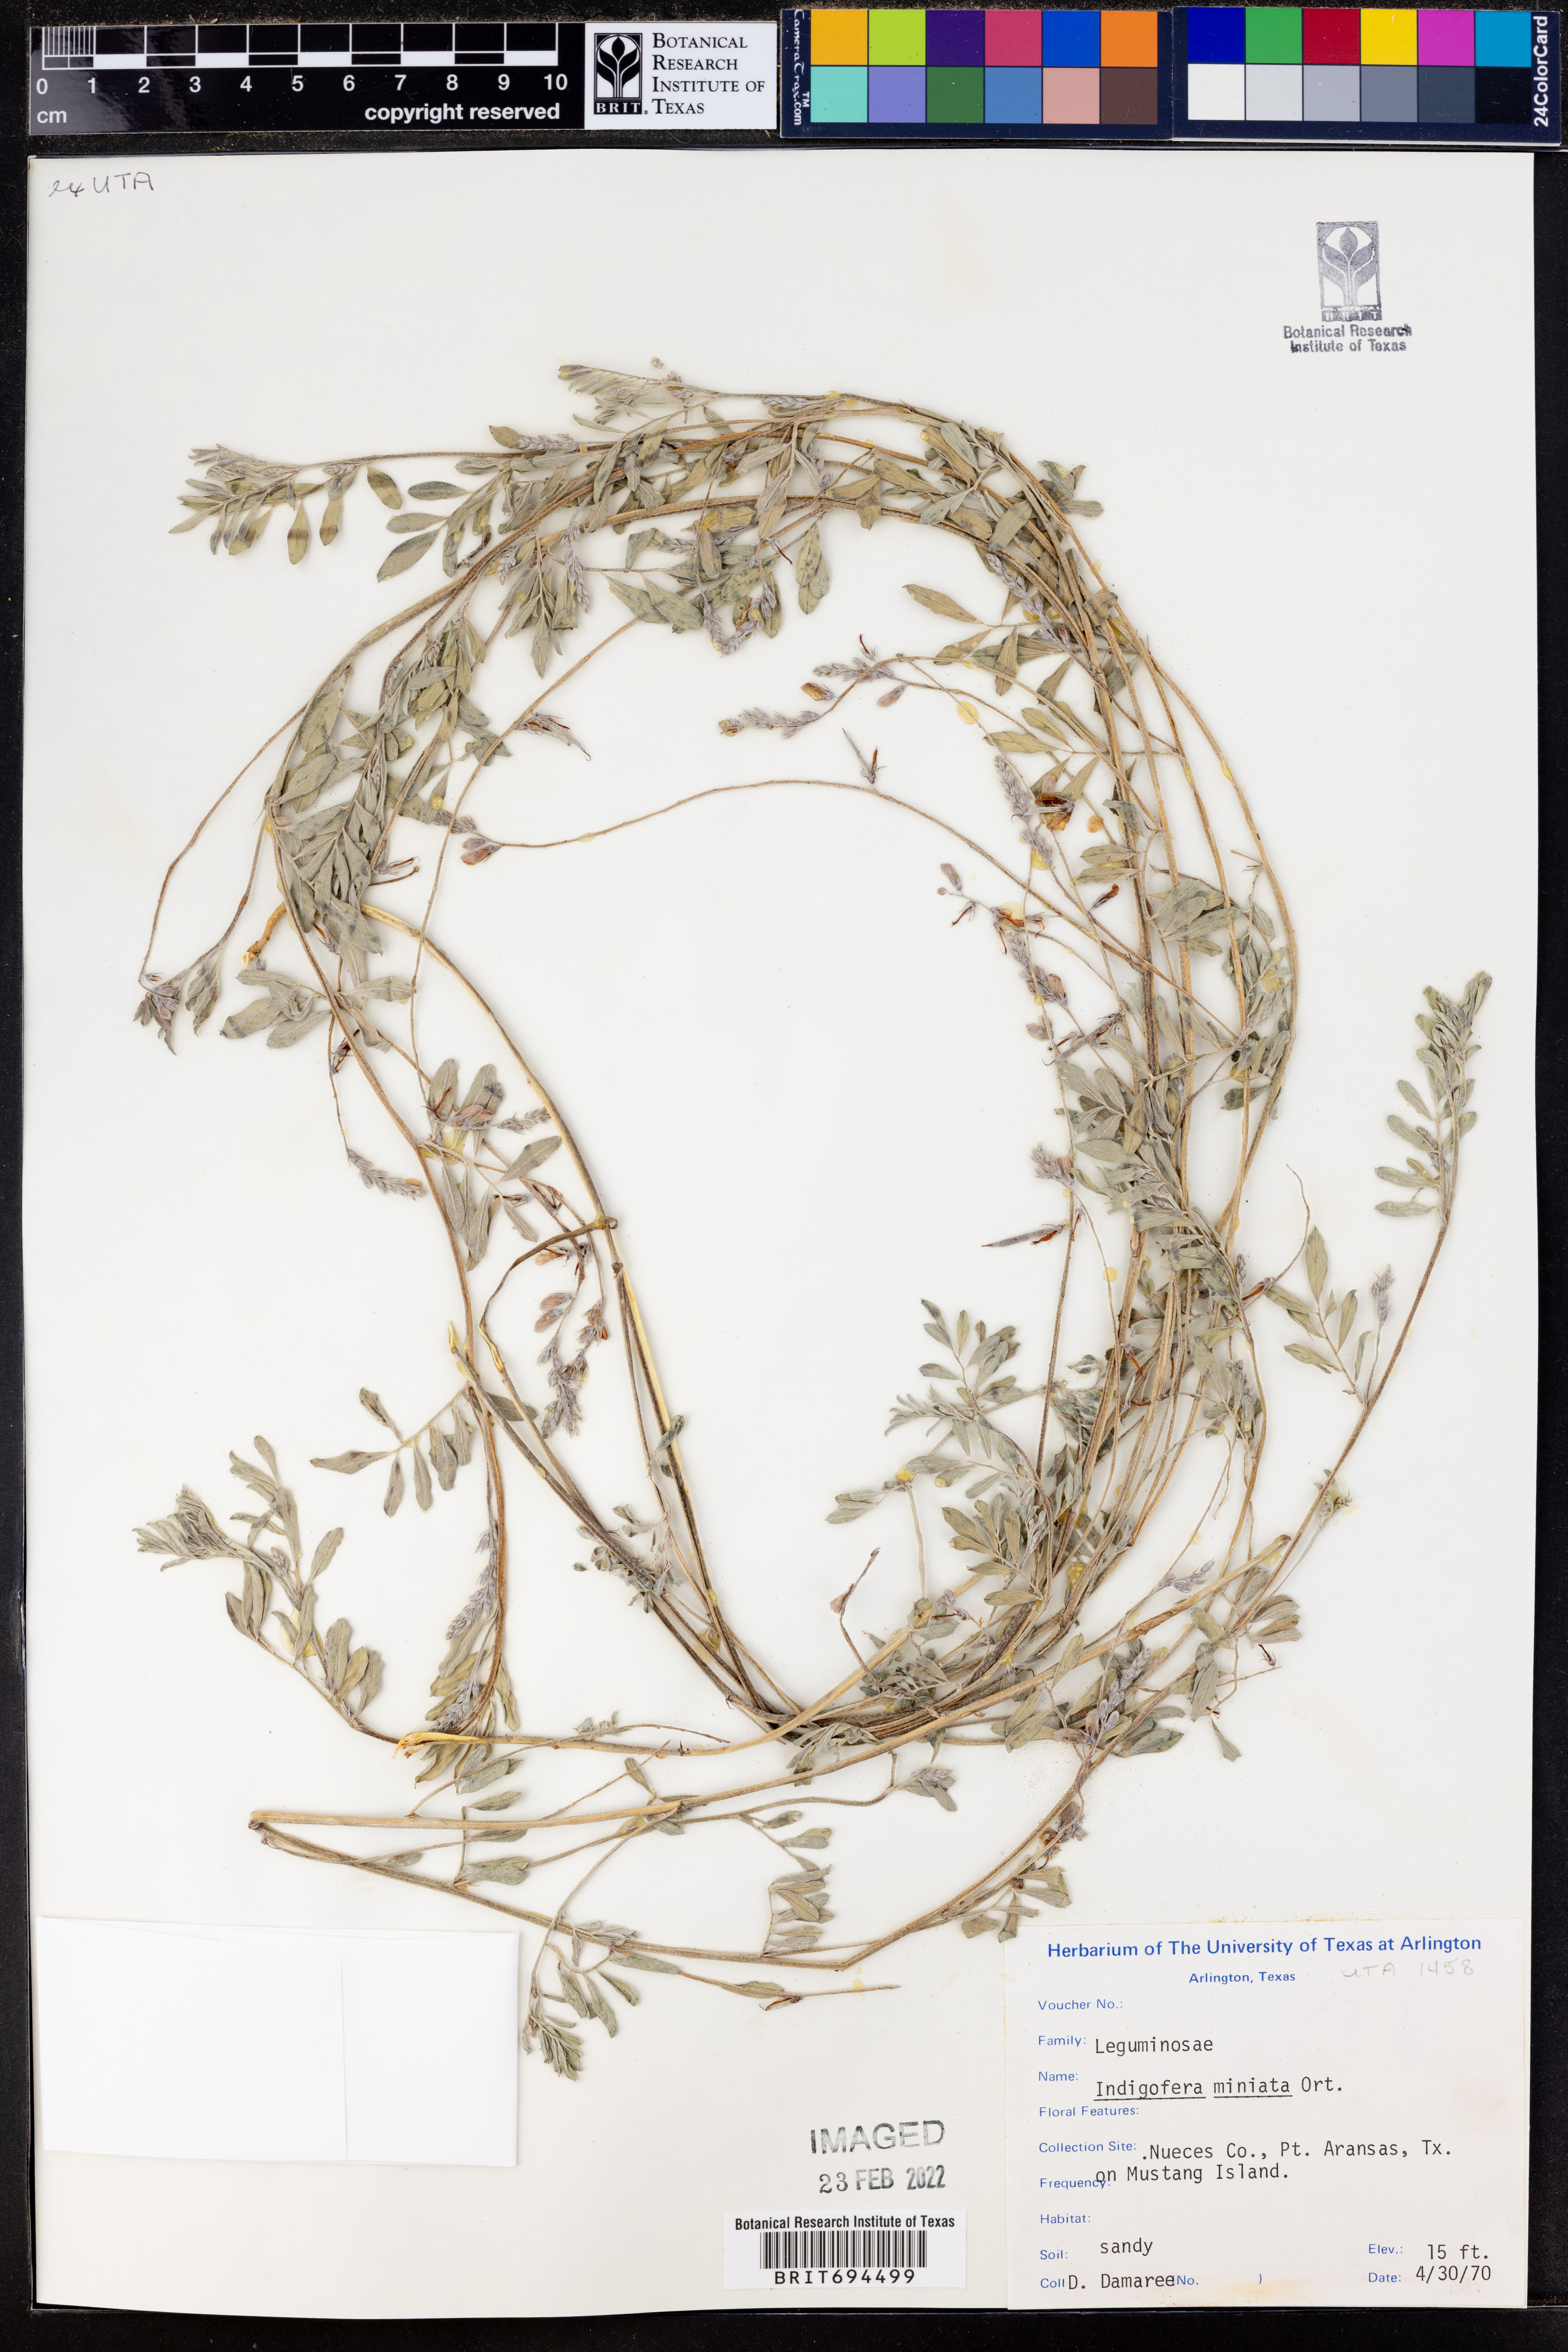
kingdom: Plantae
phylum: Tracheophyta
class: Magnoliopsida
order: Fabales
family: Fabaceae
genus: Indigofera
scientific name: Indigofera miniata
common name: Coast indigo
